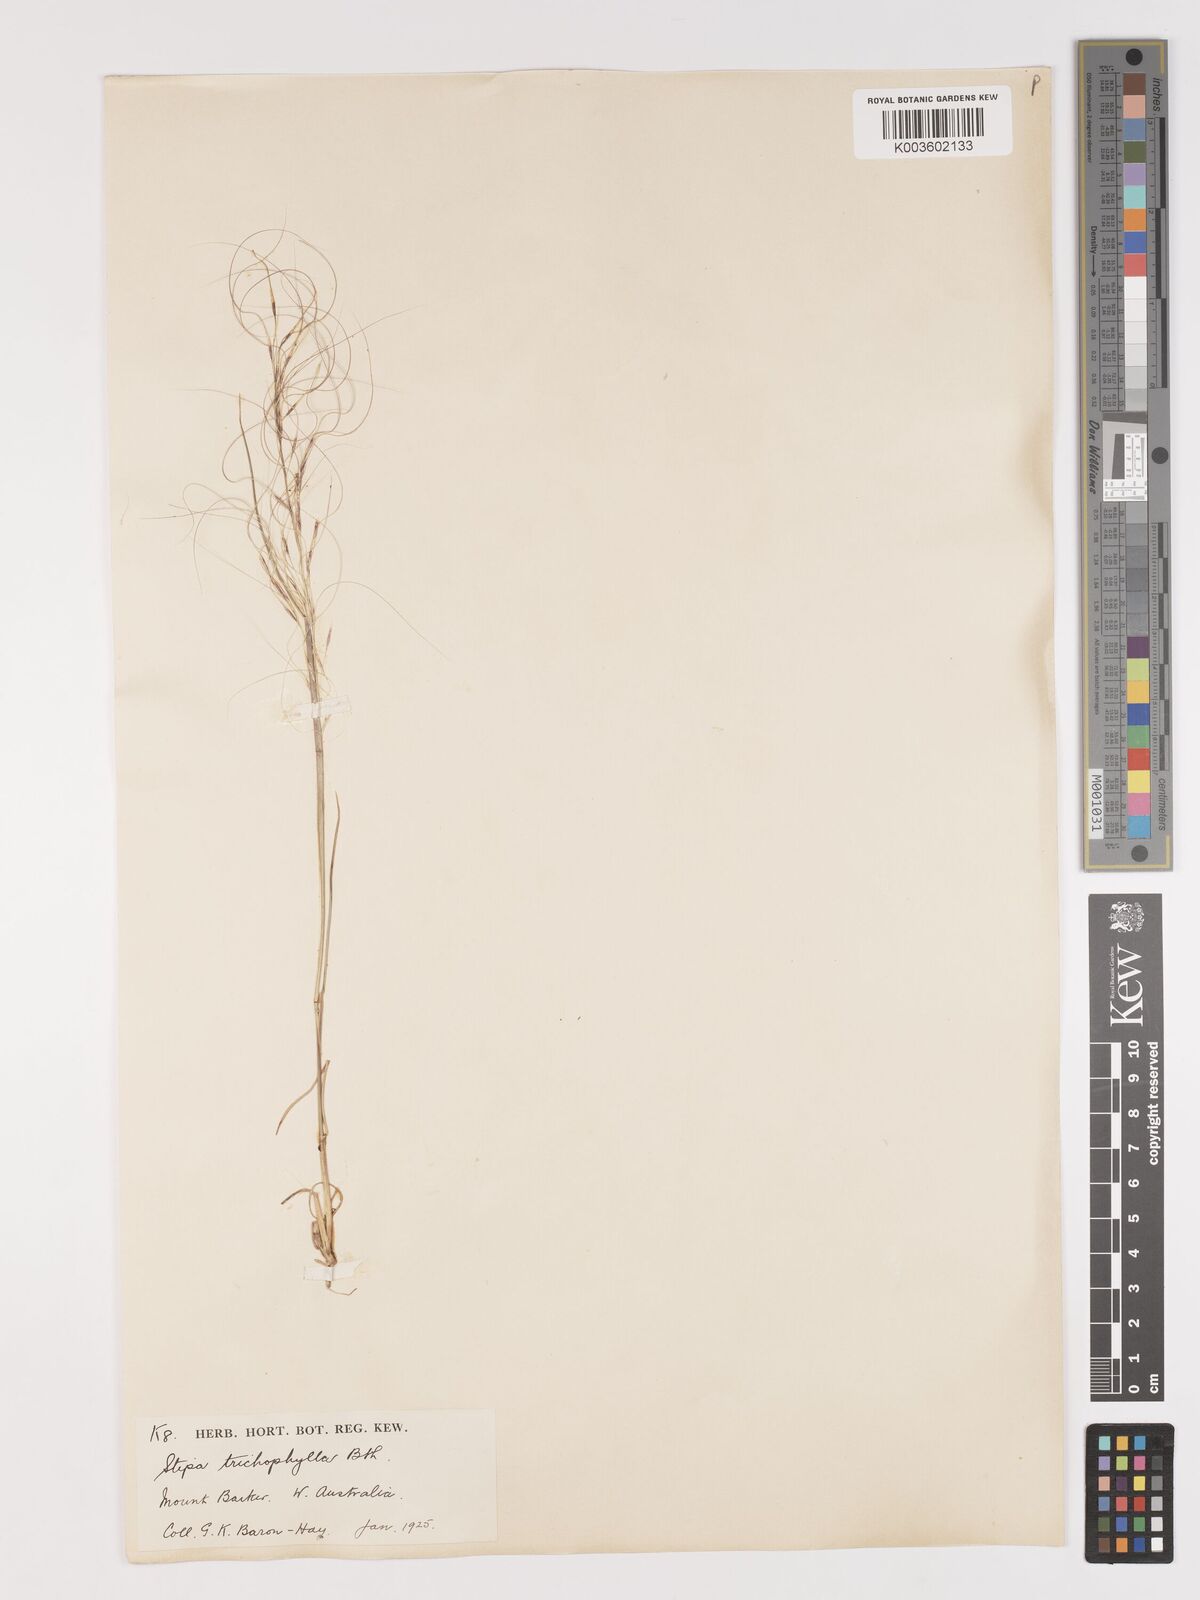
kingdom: Plantae
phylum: Tracheophyta
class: Liliopsida
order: Poales
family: Poaceae
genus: Austrostipa
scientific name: Austrostipa trichophylla
